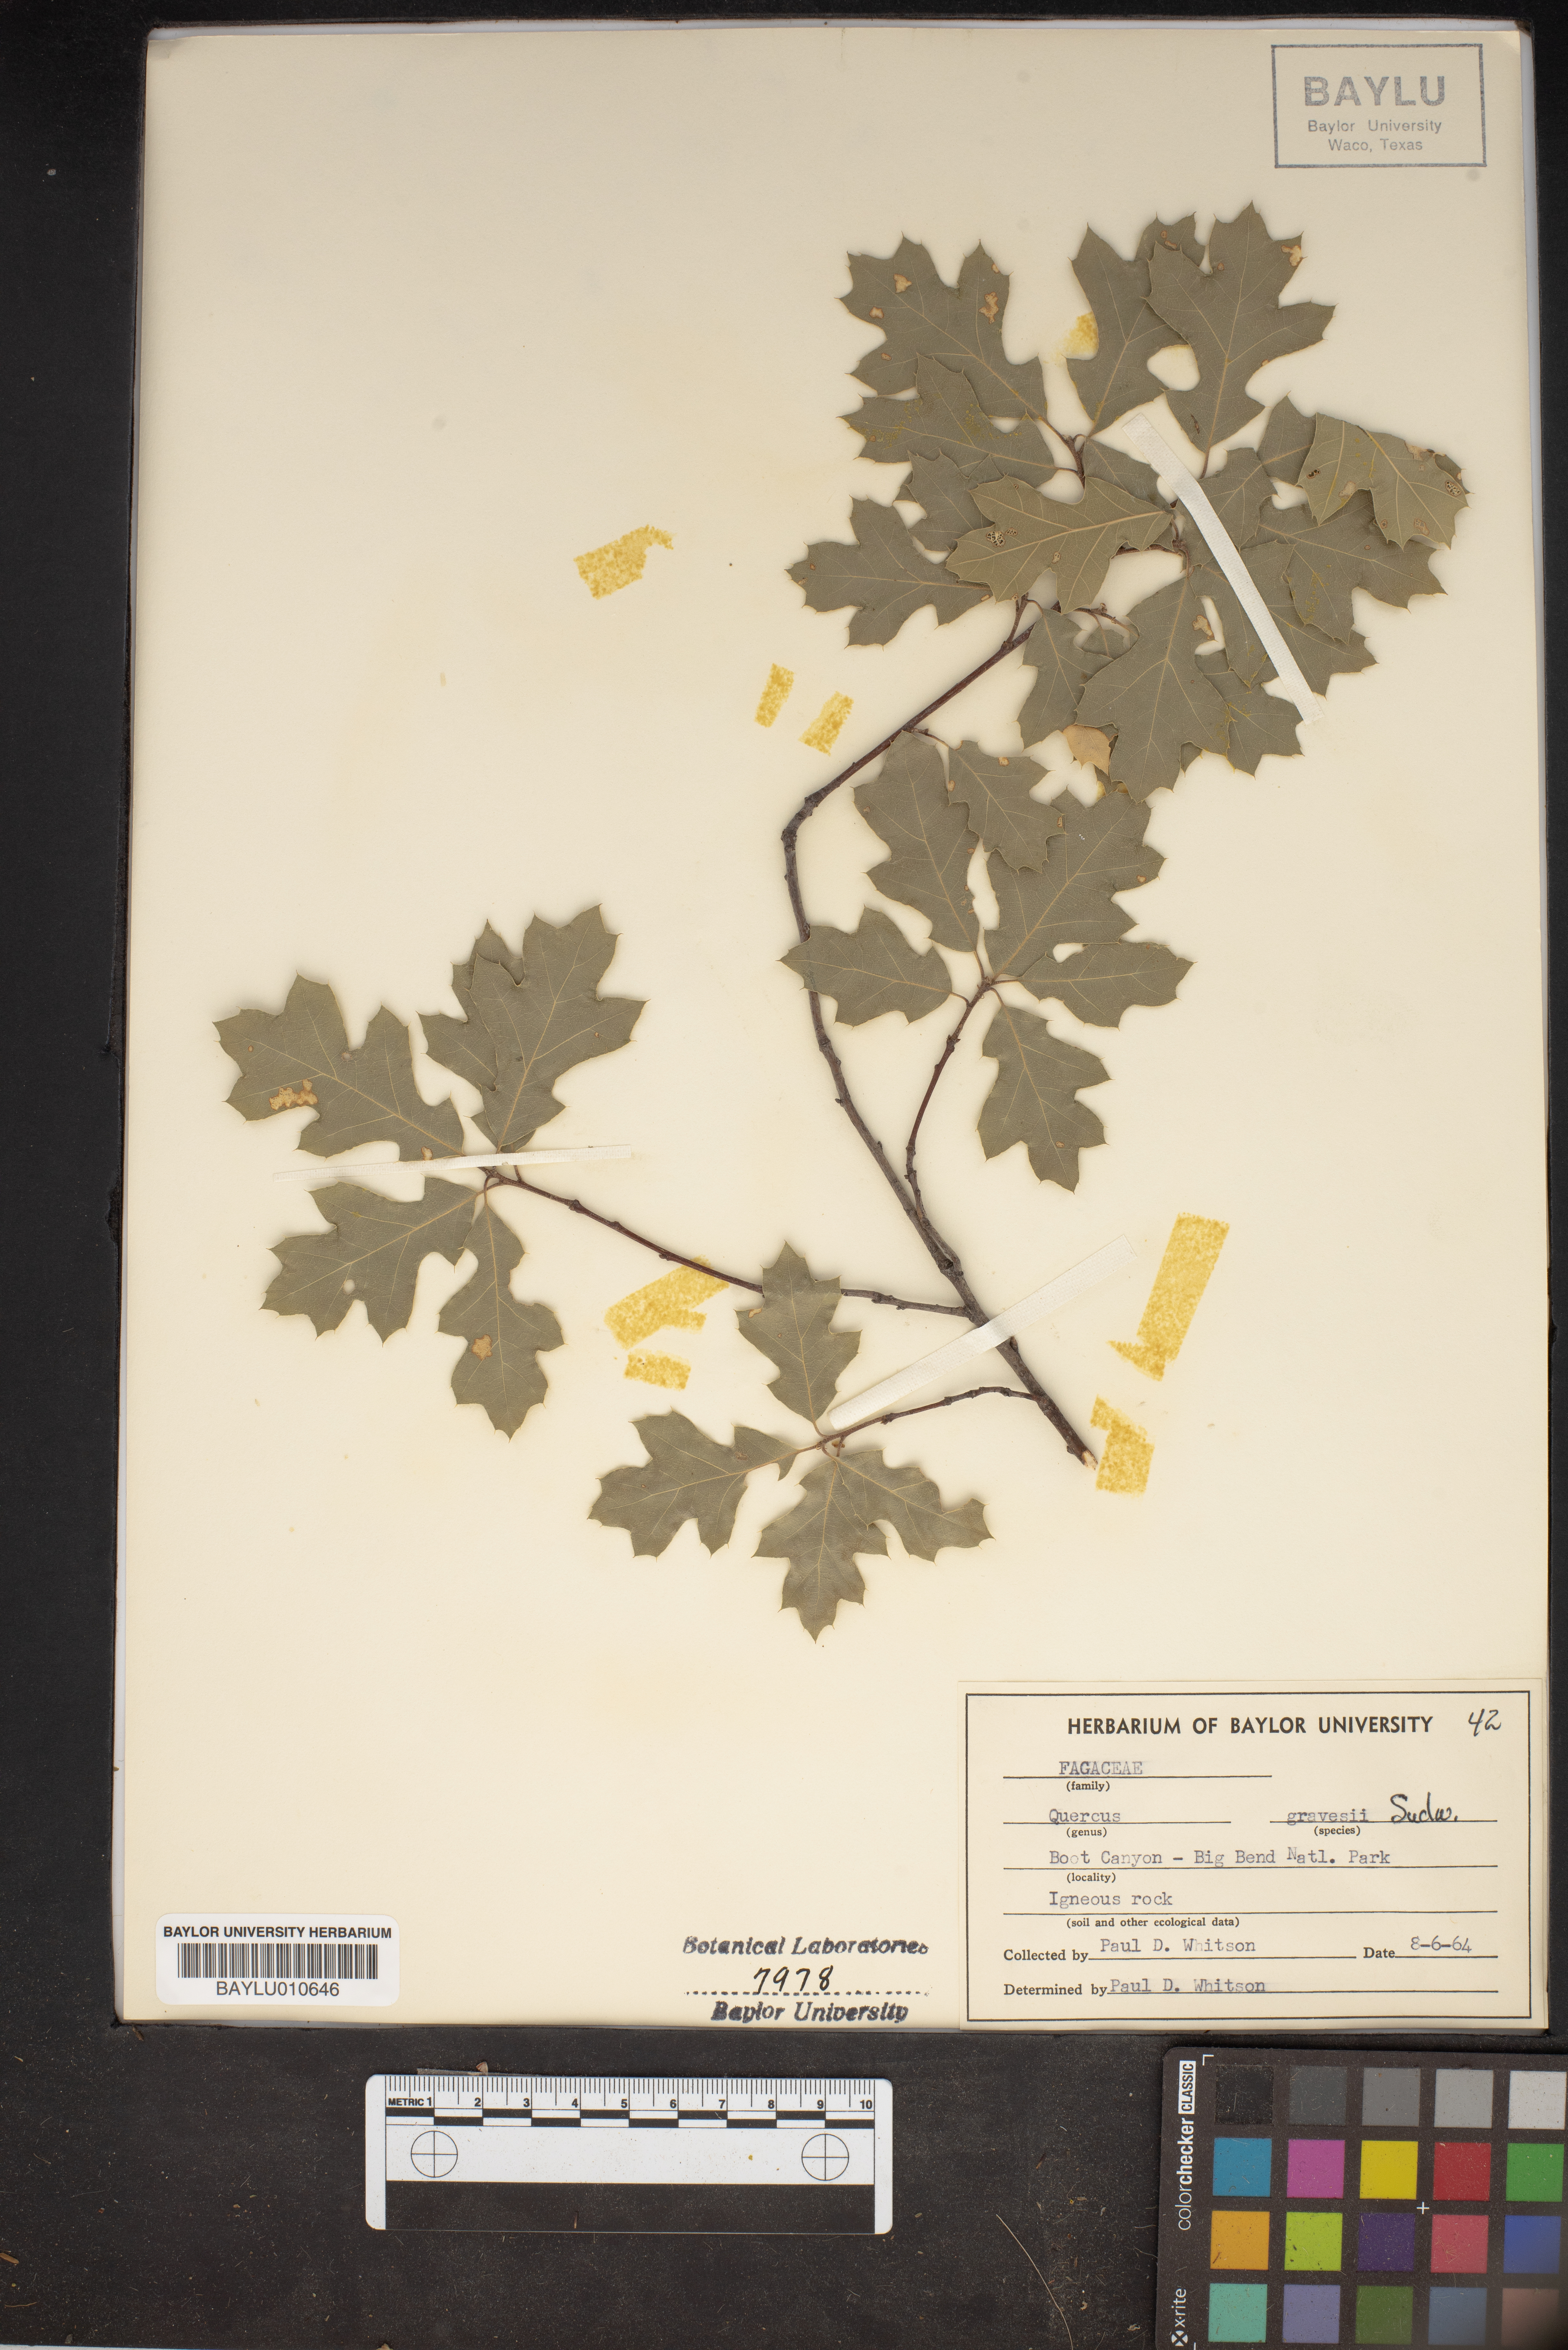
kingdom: Plantae
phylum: Tracheophyta
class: Magnoliopsida
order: Fagales
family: Fagaceae
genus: Quercus
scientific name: Quercus gravesii
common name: Chisos red oak
